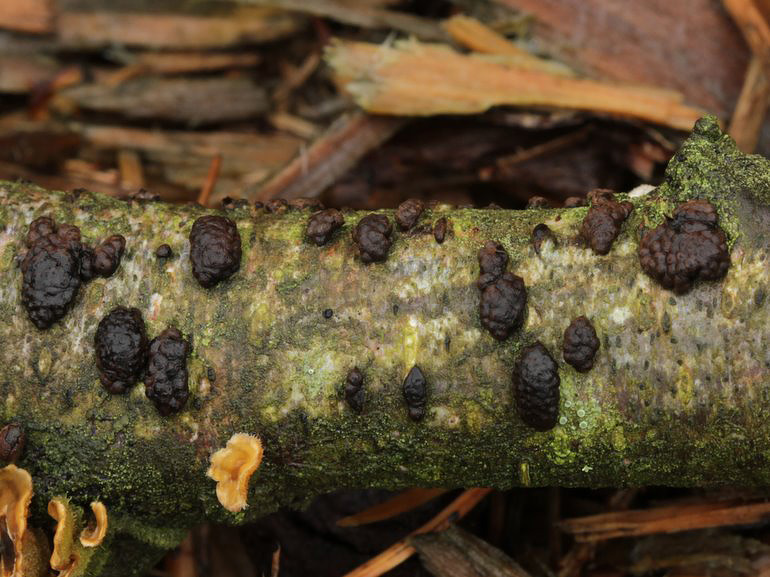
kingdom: Fungi
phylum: Ascomycota
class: Sordariomycetes
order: Xylariales
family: Hypoxylaceae
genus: Jackrogersella
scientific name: Jackrogersella multiformis
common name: foranderlig kulbær
